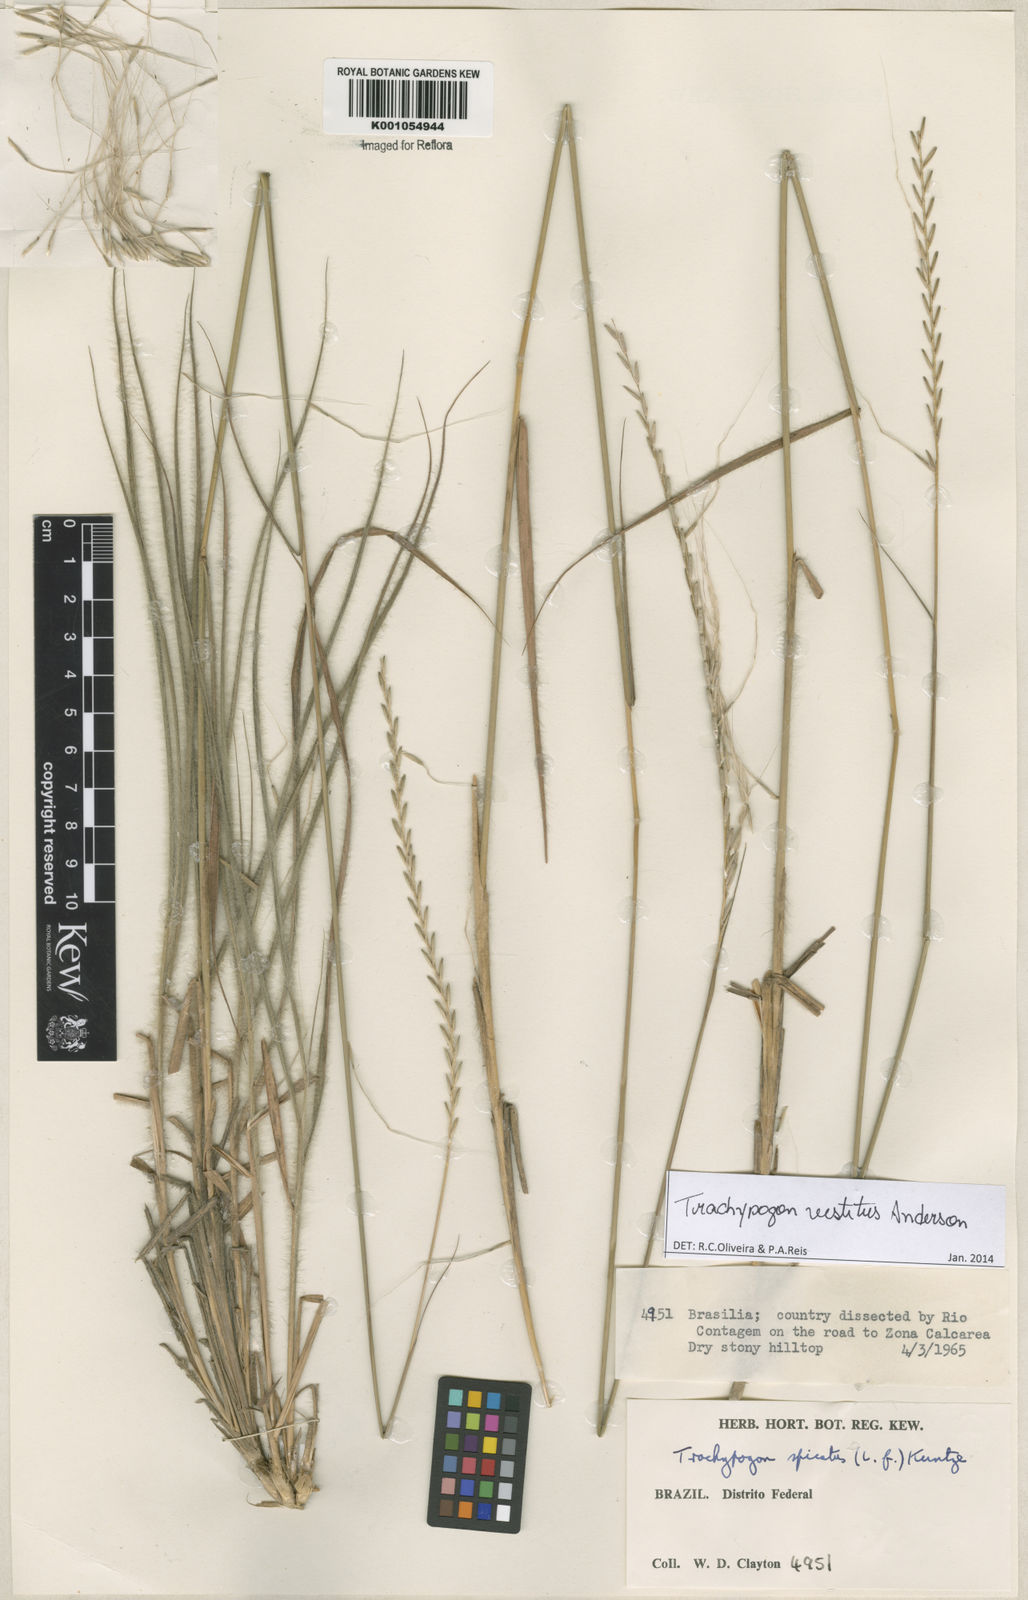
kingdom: Plantae
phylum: Tracheophyta
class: Liliopsida
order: Poales
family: Poaceae
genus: Trachypogon
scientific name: Trachypogon vestitus
